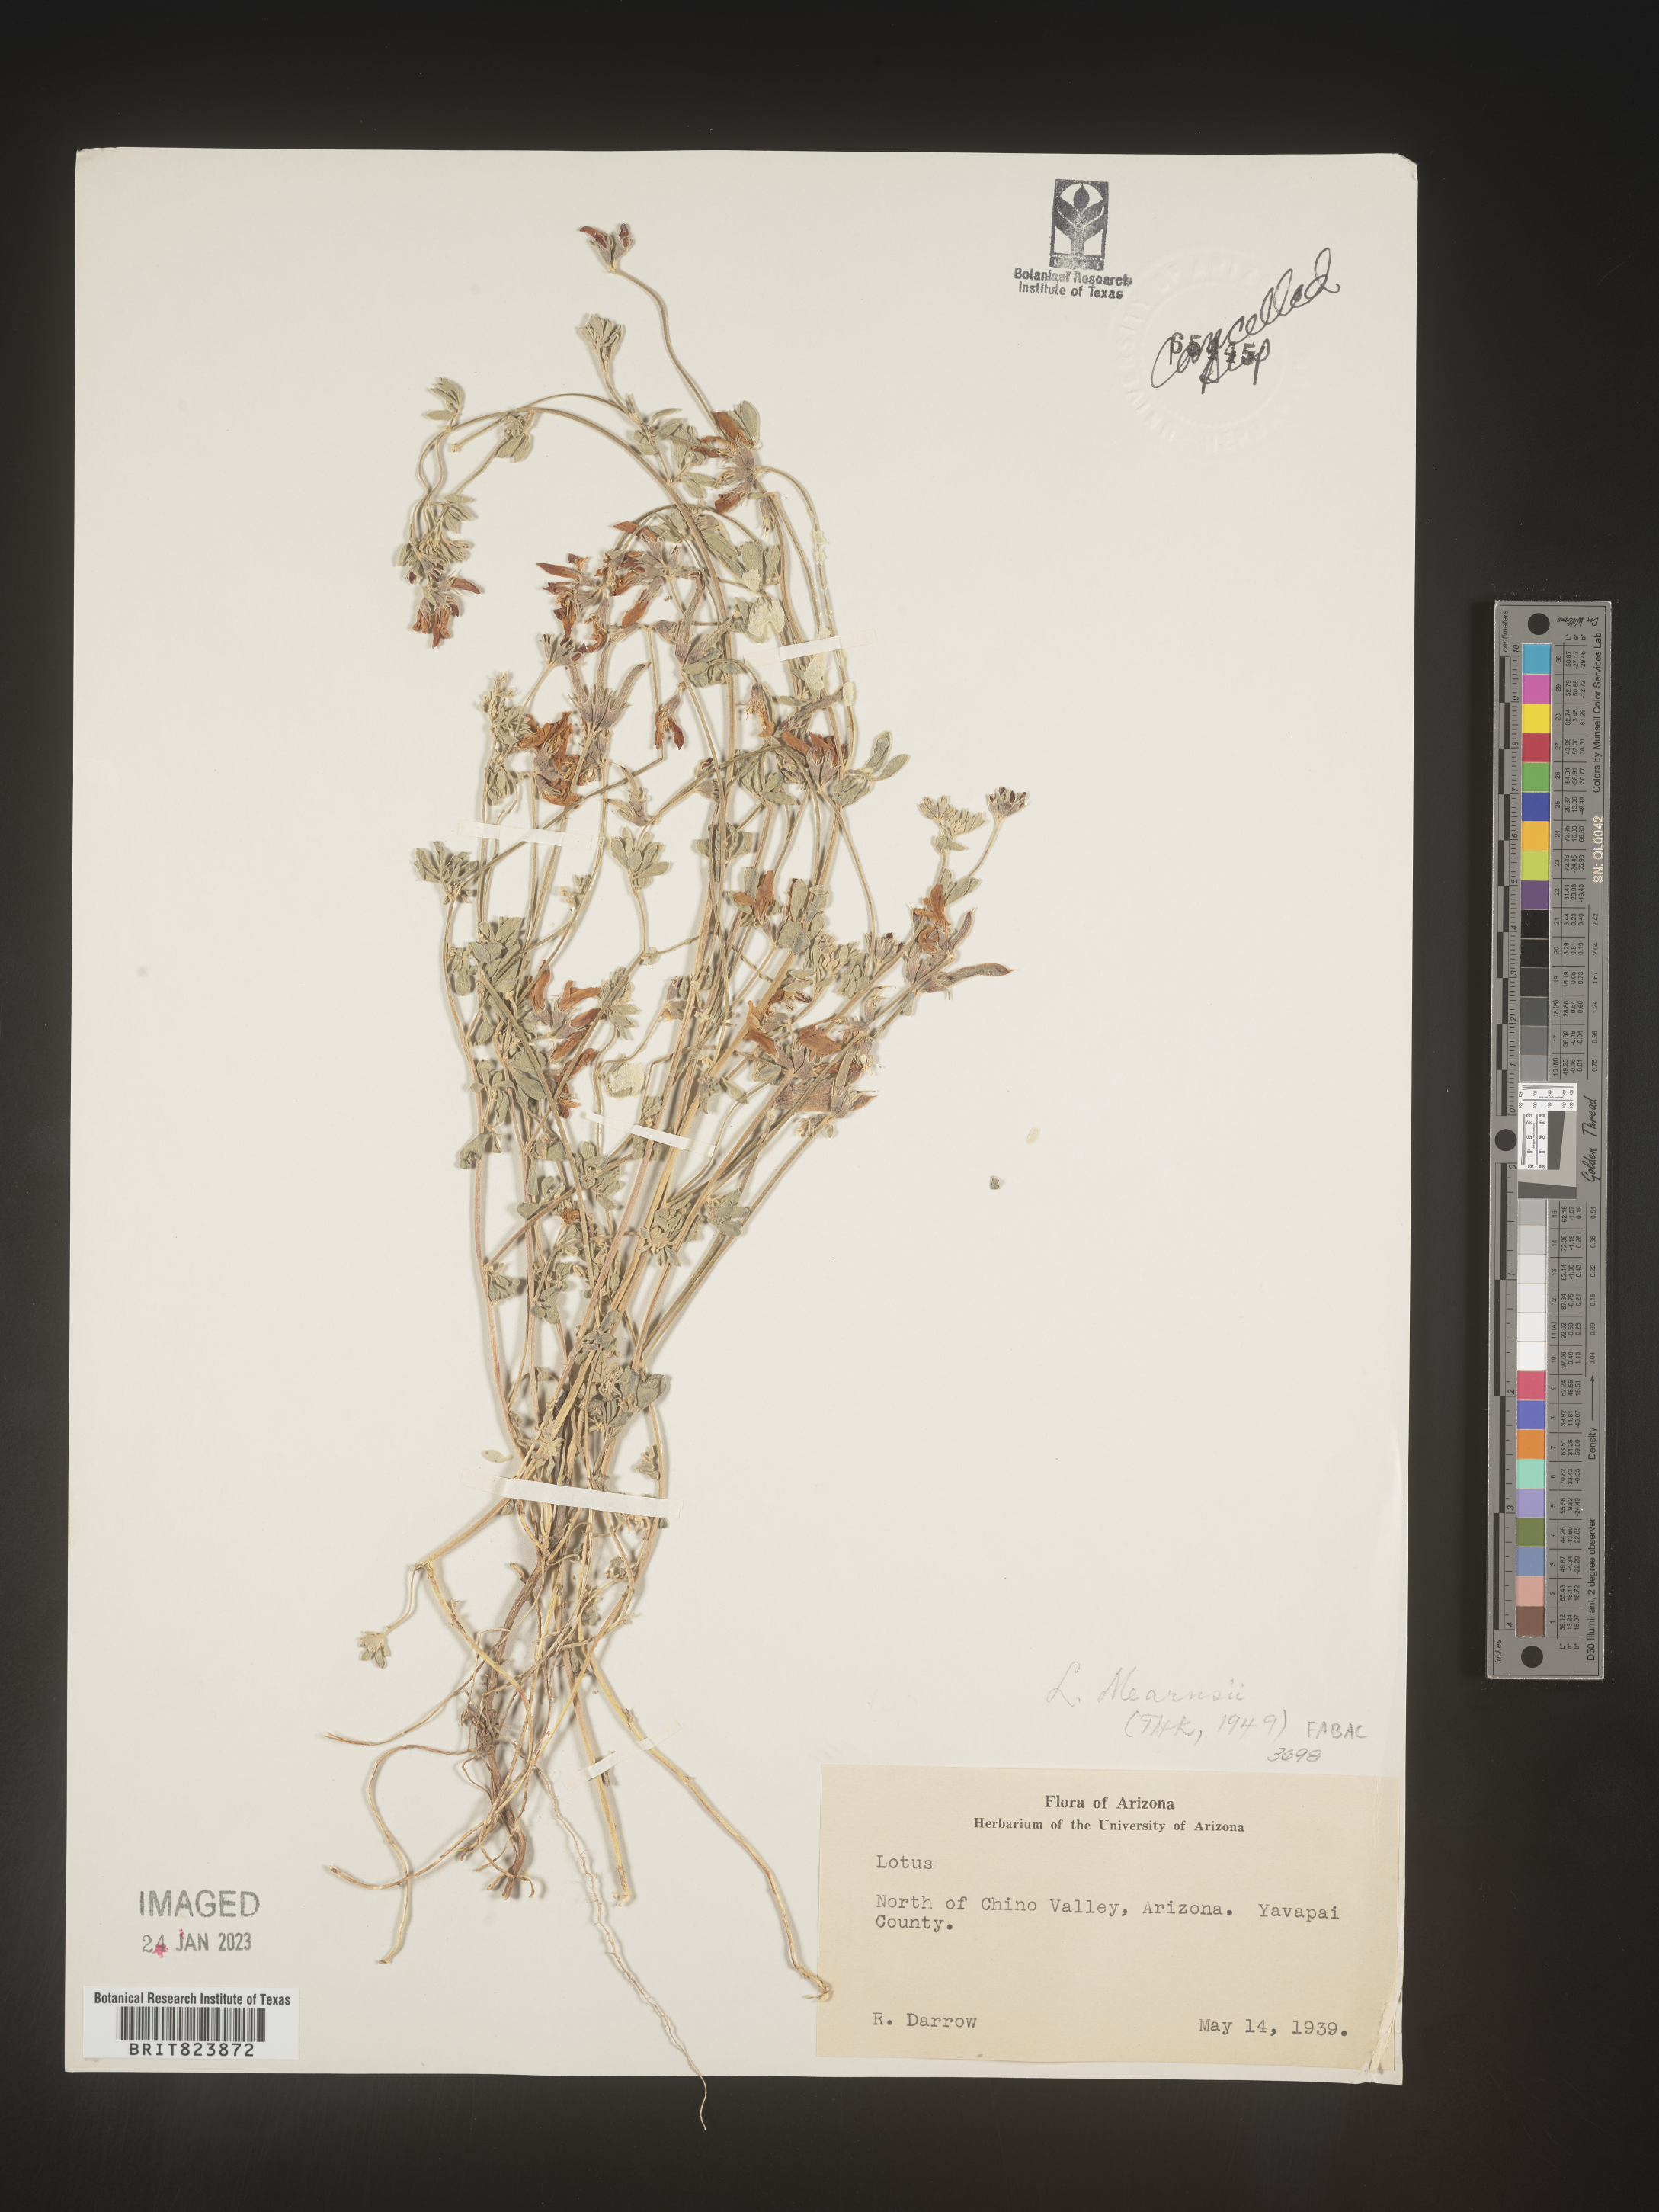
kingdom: Plantae
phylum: Tracheophyta
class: Magnoliopsida
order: Fabales
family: Fabaceae
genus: Lotus
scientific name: Lotus
